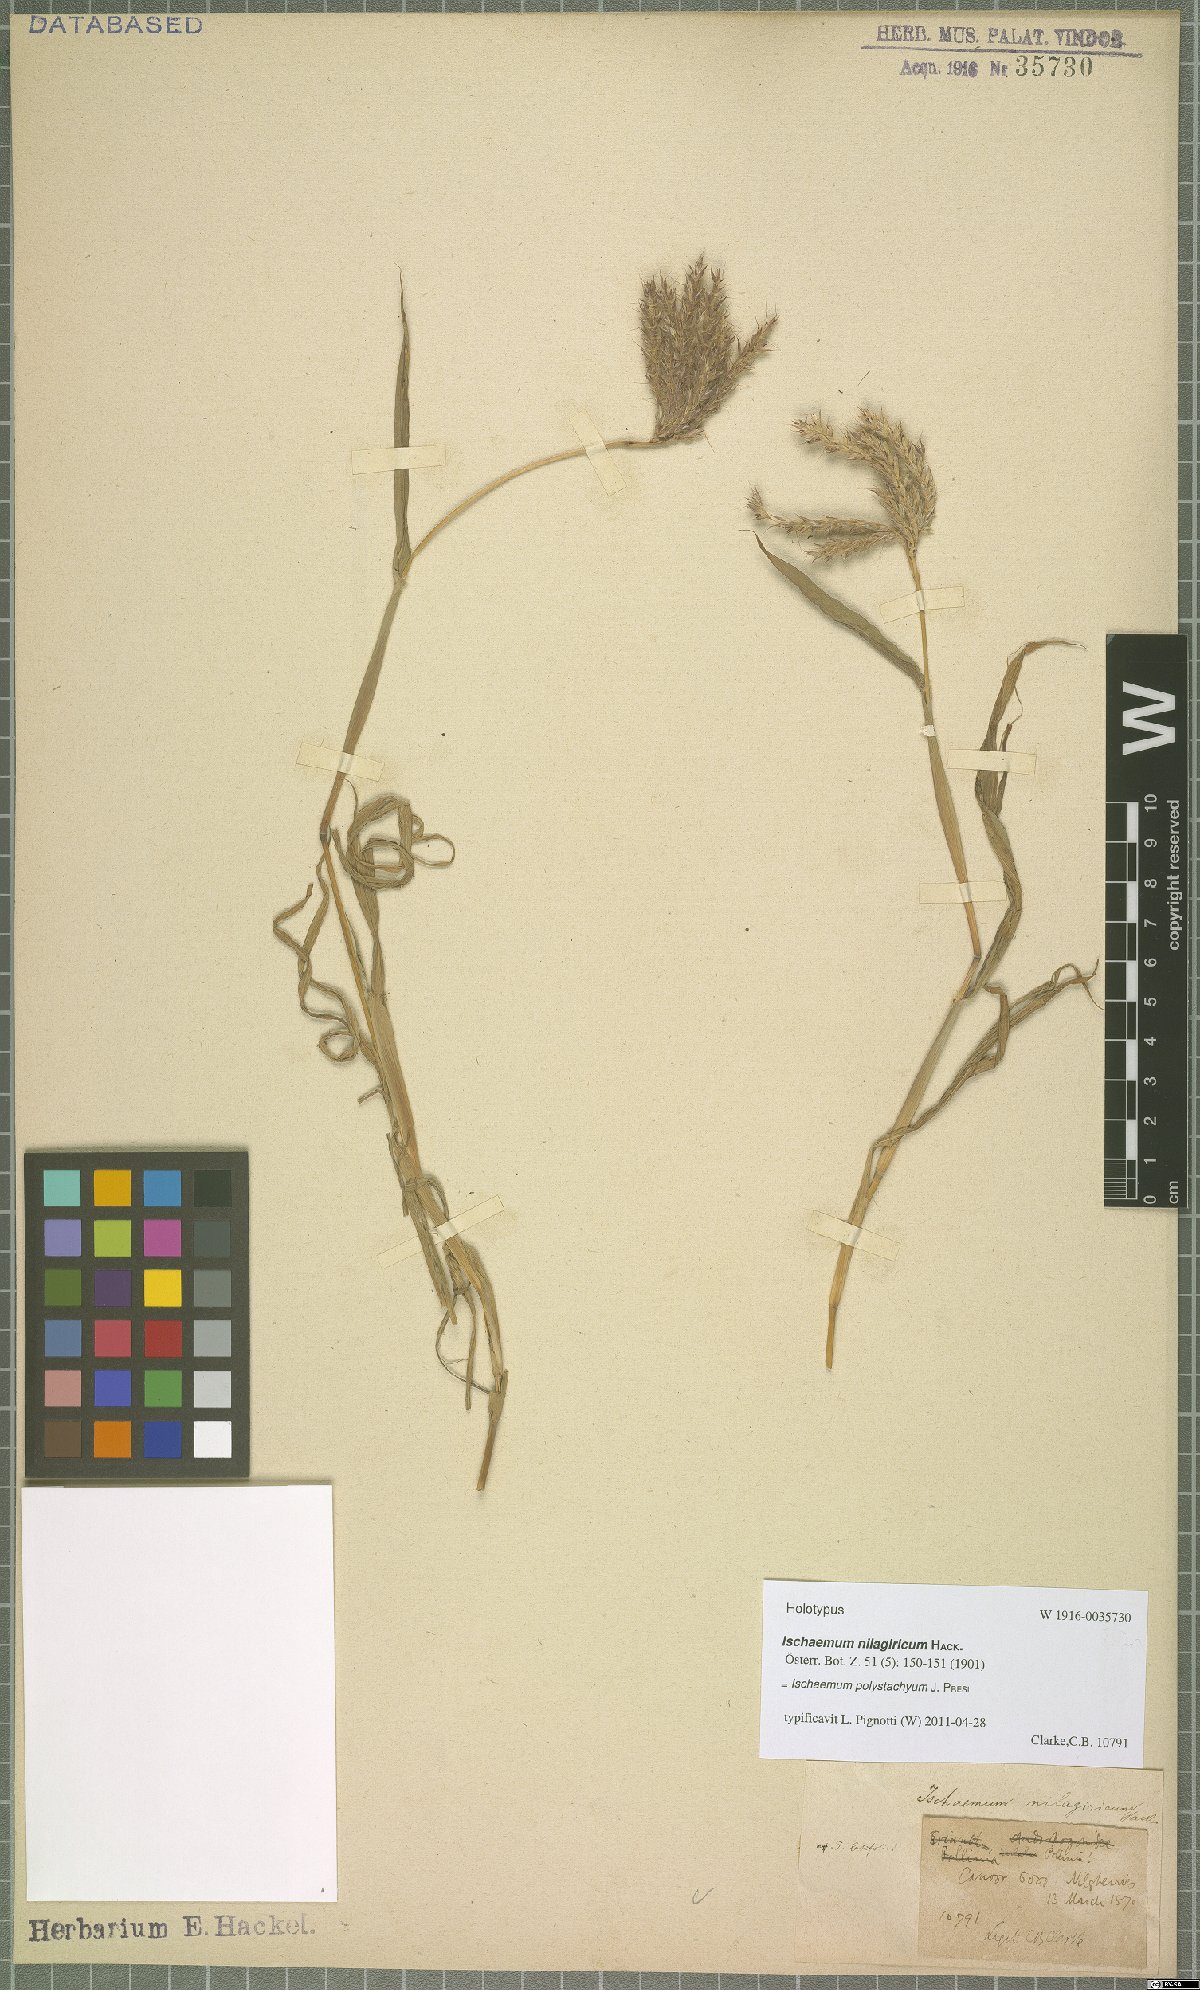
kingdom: Plantae
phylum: Tracheophyta
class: Liliopsida
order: Poales
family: Poaceae
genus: Ischaemum
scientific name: Ischaemum polystachyum
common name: Paddle grass
